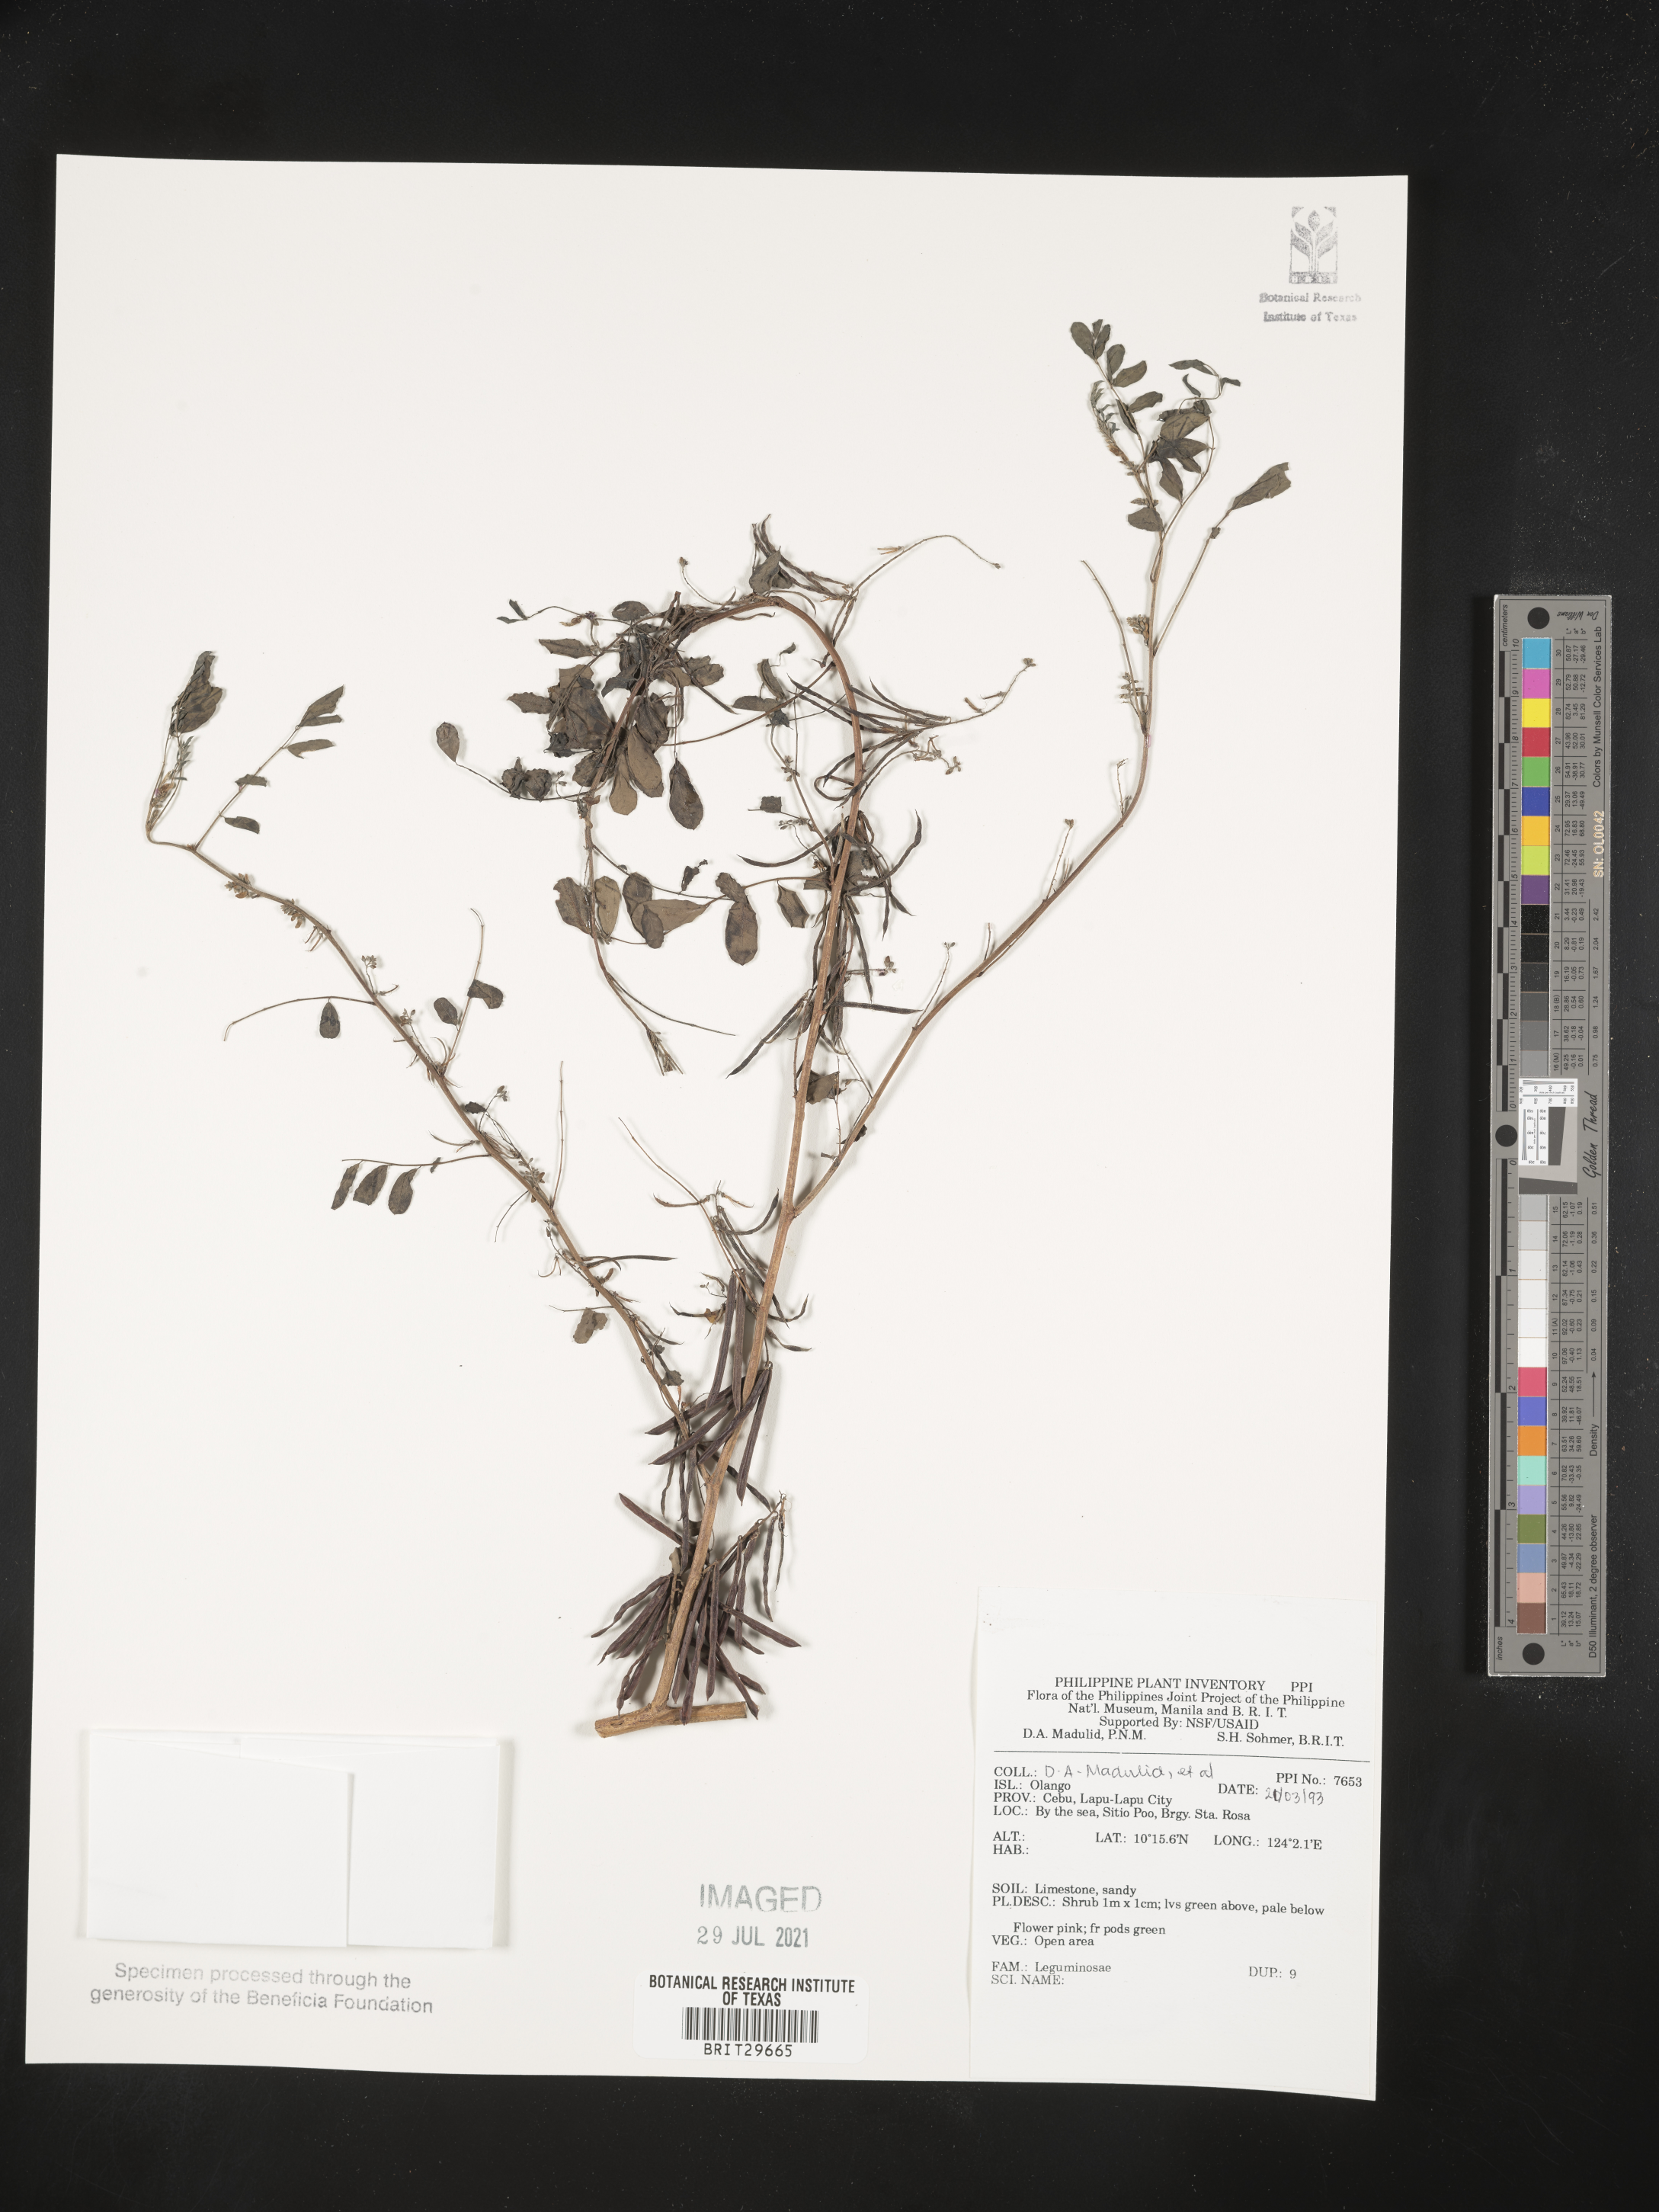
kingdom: Plantae
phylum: Tracheophyta
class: Magnoliopsida
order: Fabales
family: Fabaceae
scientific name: Fabaceae
